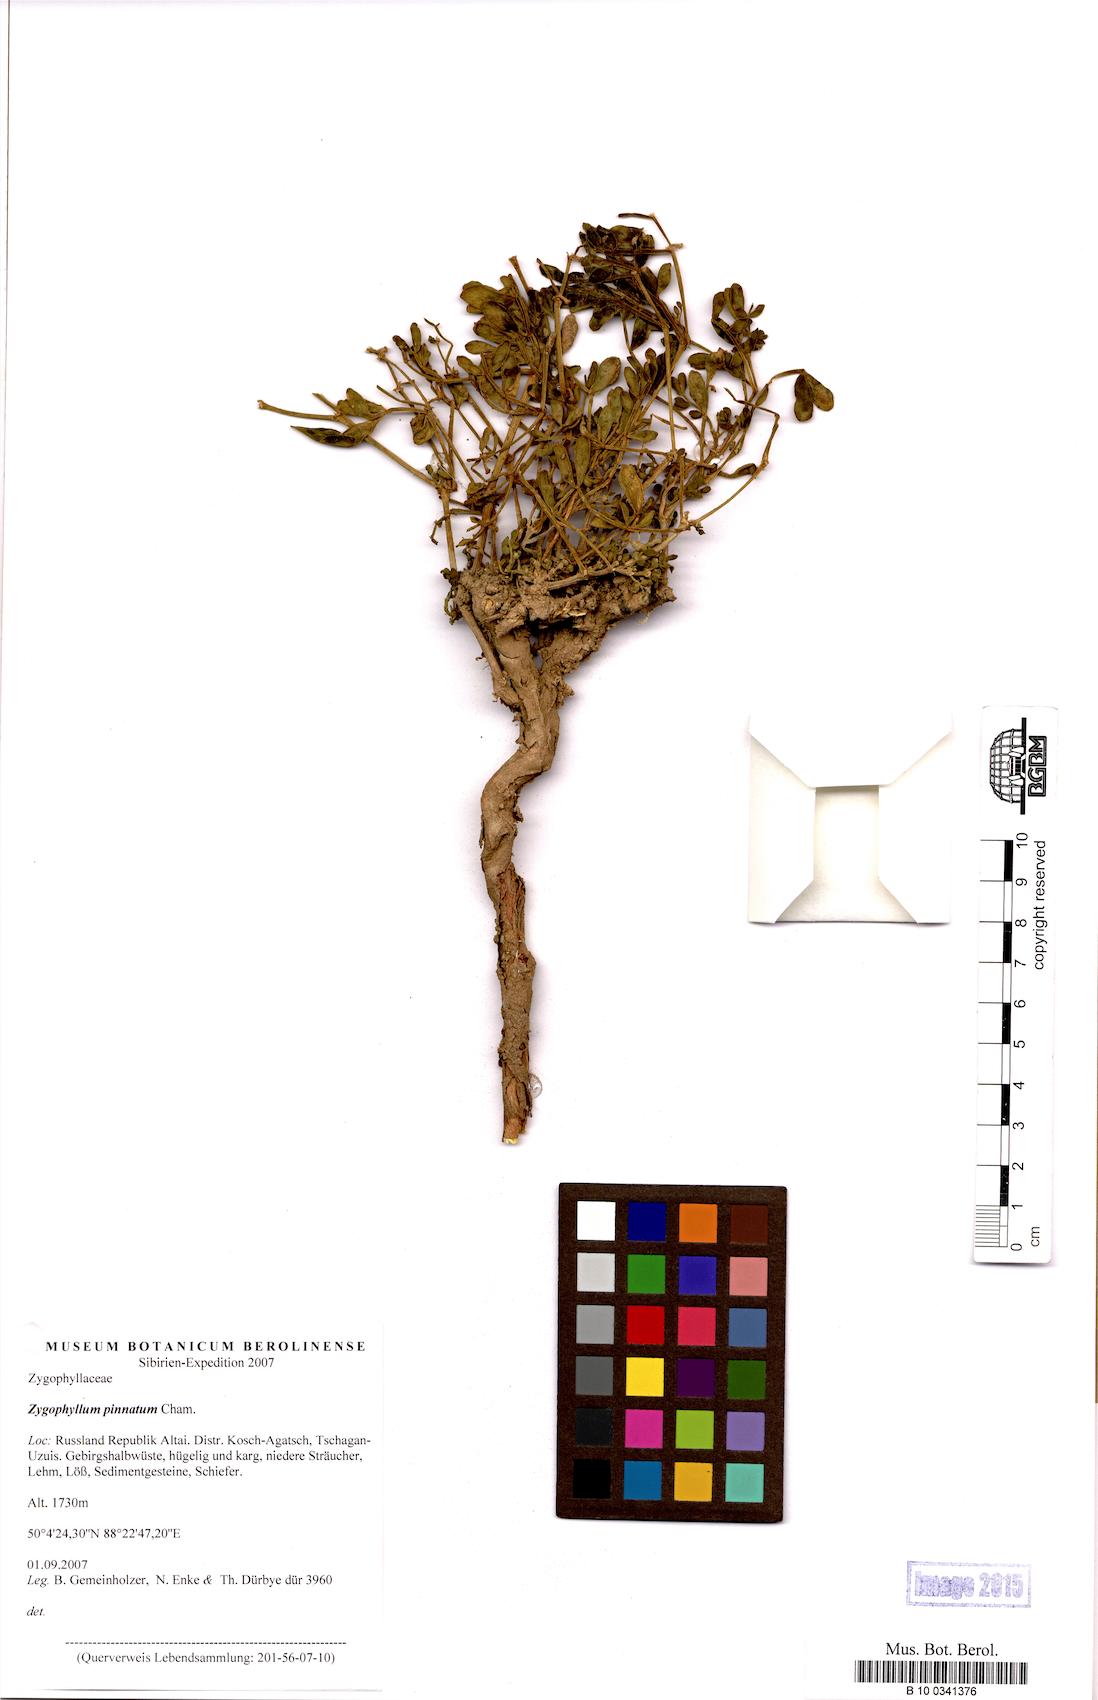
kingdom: Plantae
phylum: Tracheophyta
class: Magnoliopsida
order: Zygophyllales
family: Zygophyllaceae
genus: Zygophyllum
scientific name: Zygophyllum pinnatum
